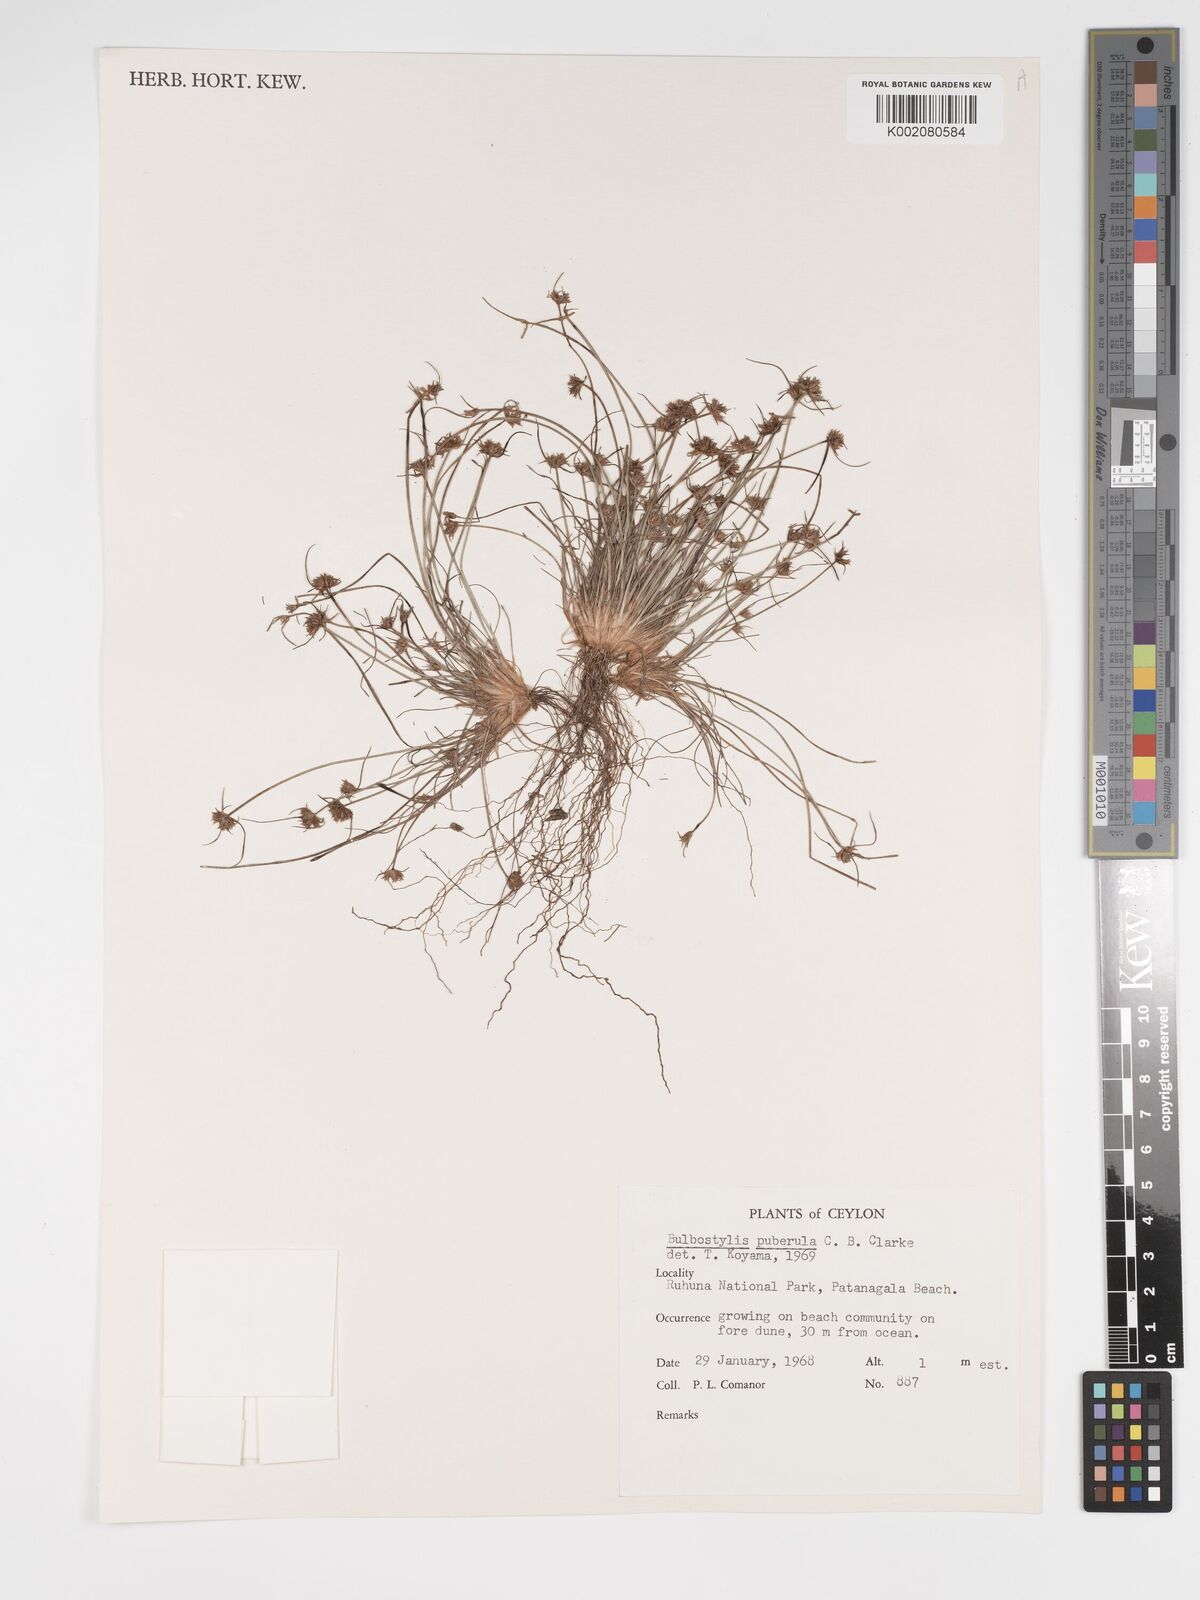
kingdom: Plantae
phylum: Tracheophyta
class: Magnoliopsida
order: Asterales
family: Asteraceae
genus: Bulbostylis
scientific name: Bulbostylis
